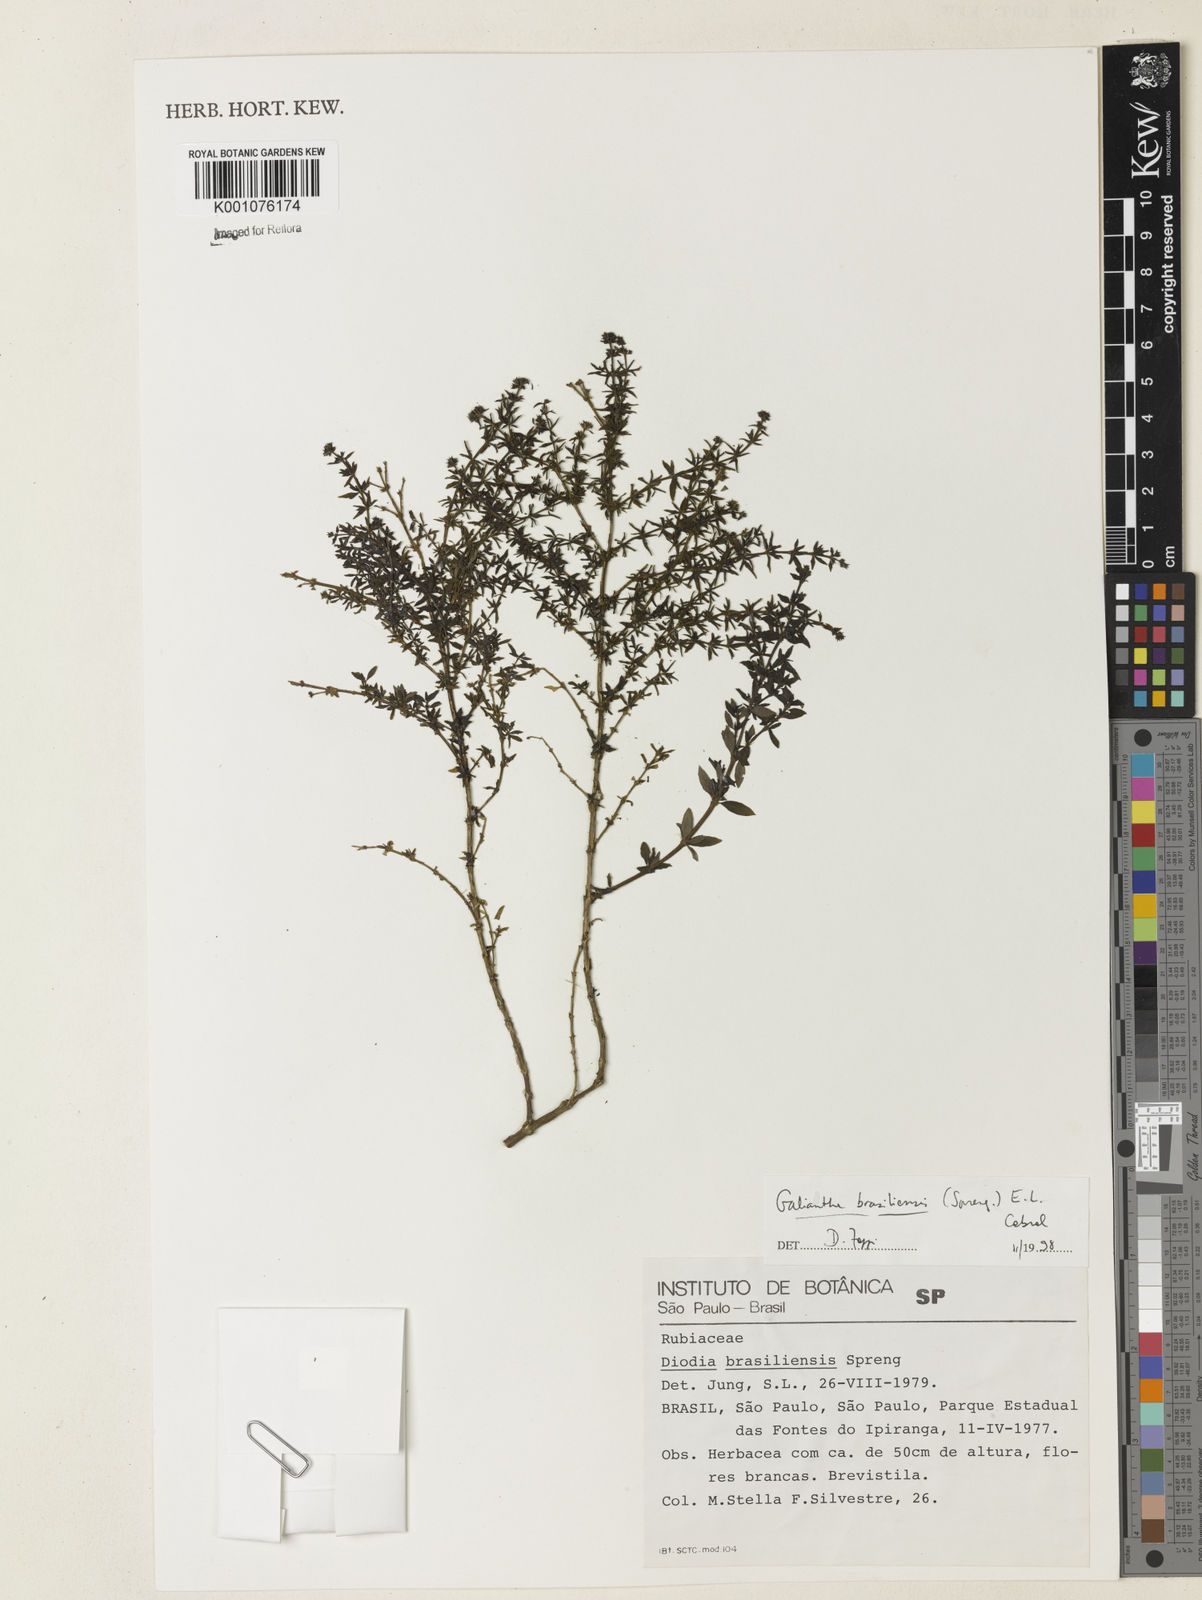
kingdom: Plantae
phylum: Tracheophyta
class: Magnoliopsida
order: Gentianales
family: Rubiaceae
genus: Spermacoce
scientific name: Spermacoce orinocensis
